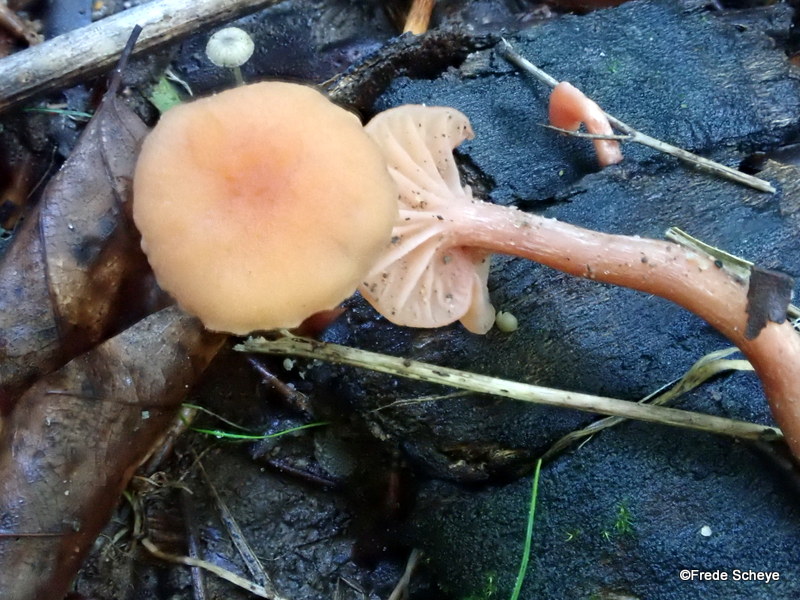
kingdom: Fungi
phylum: Basidiomycota
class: Agaricomycetes
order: Agaricales
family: Hydnangiaceae
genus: Laccaria
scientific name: Laccaria laccata
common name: rød ametysthat
